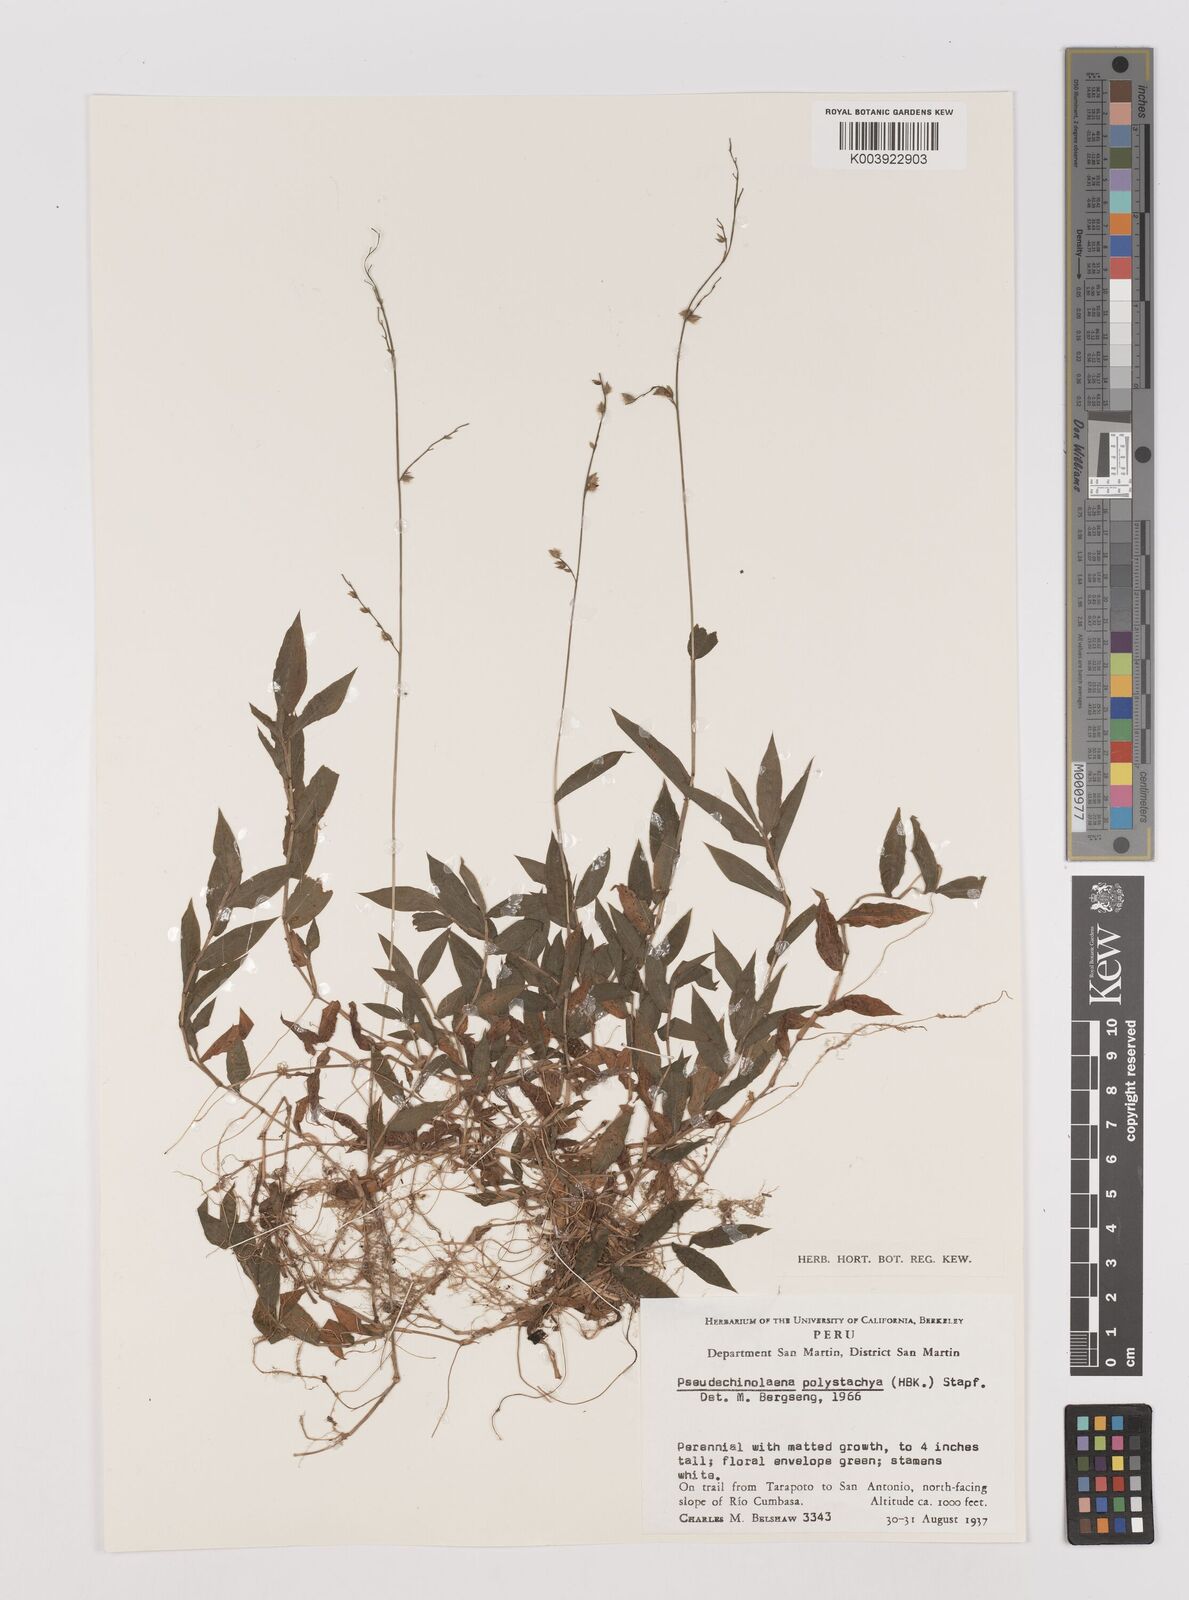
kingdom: Plantae
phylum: Tracheophyta
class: Liliopsida
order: Poales
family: Poaceae
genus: Pseudechinolaena
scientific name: Pseudechinolaena polystachya
